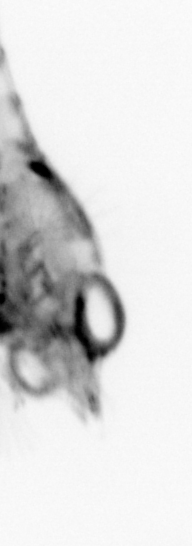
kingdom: Animalia
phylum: Arthropoda
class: Malacostraca
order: Decapoda
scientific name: Decapoda
